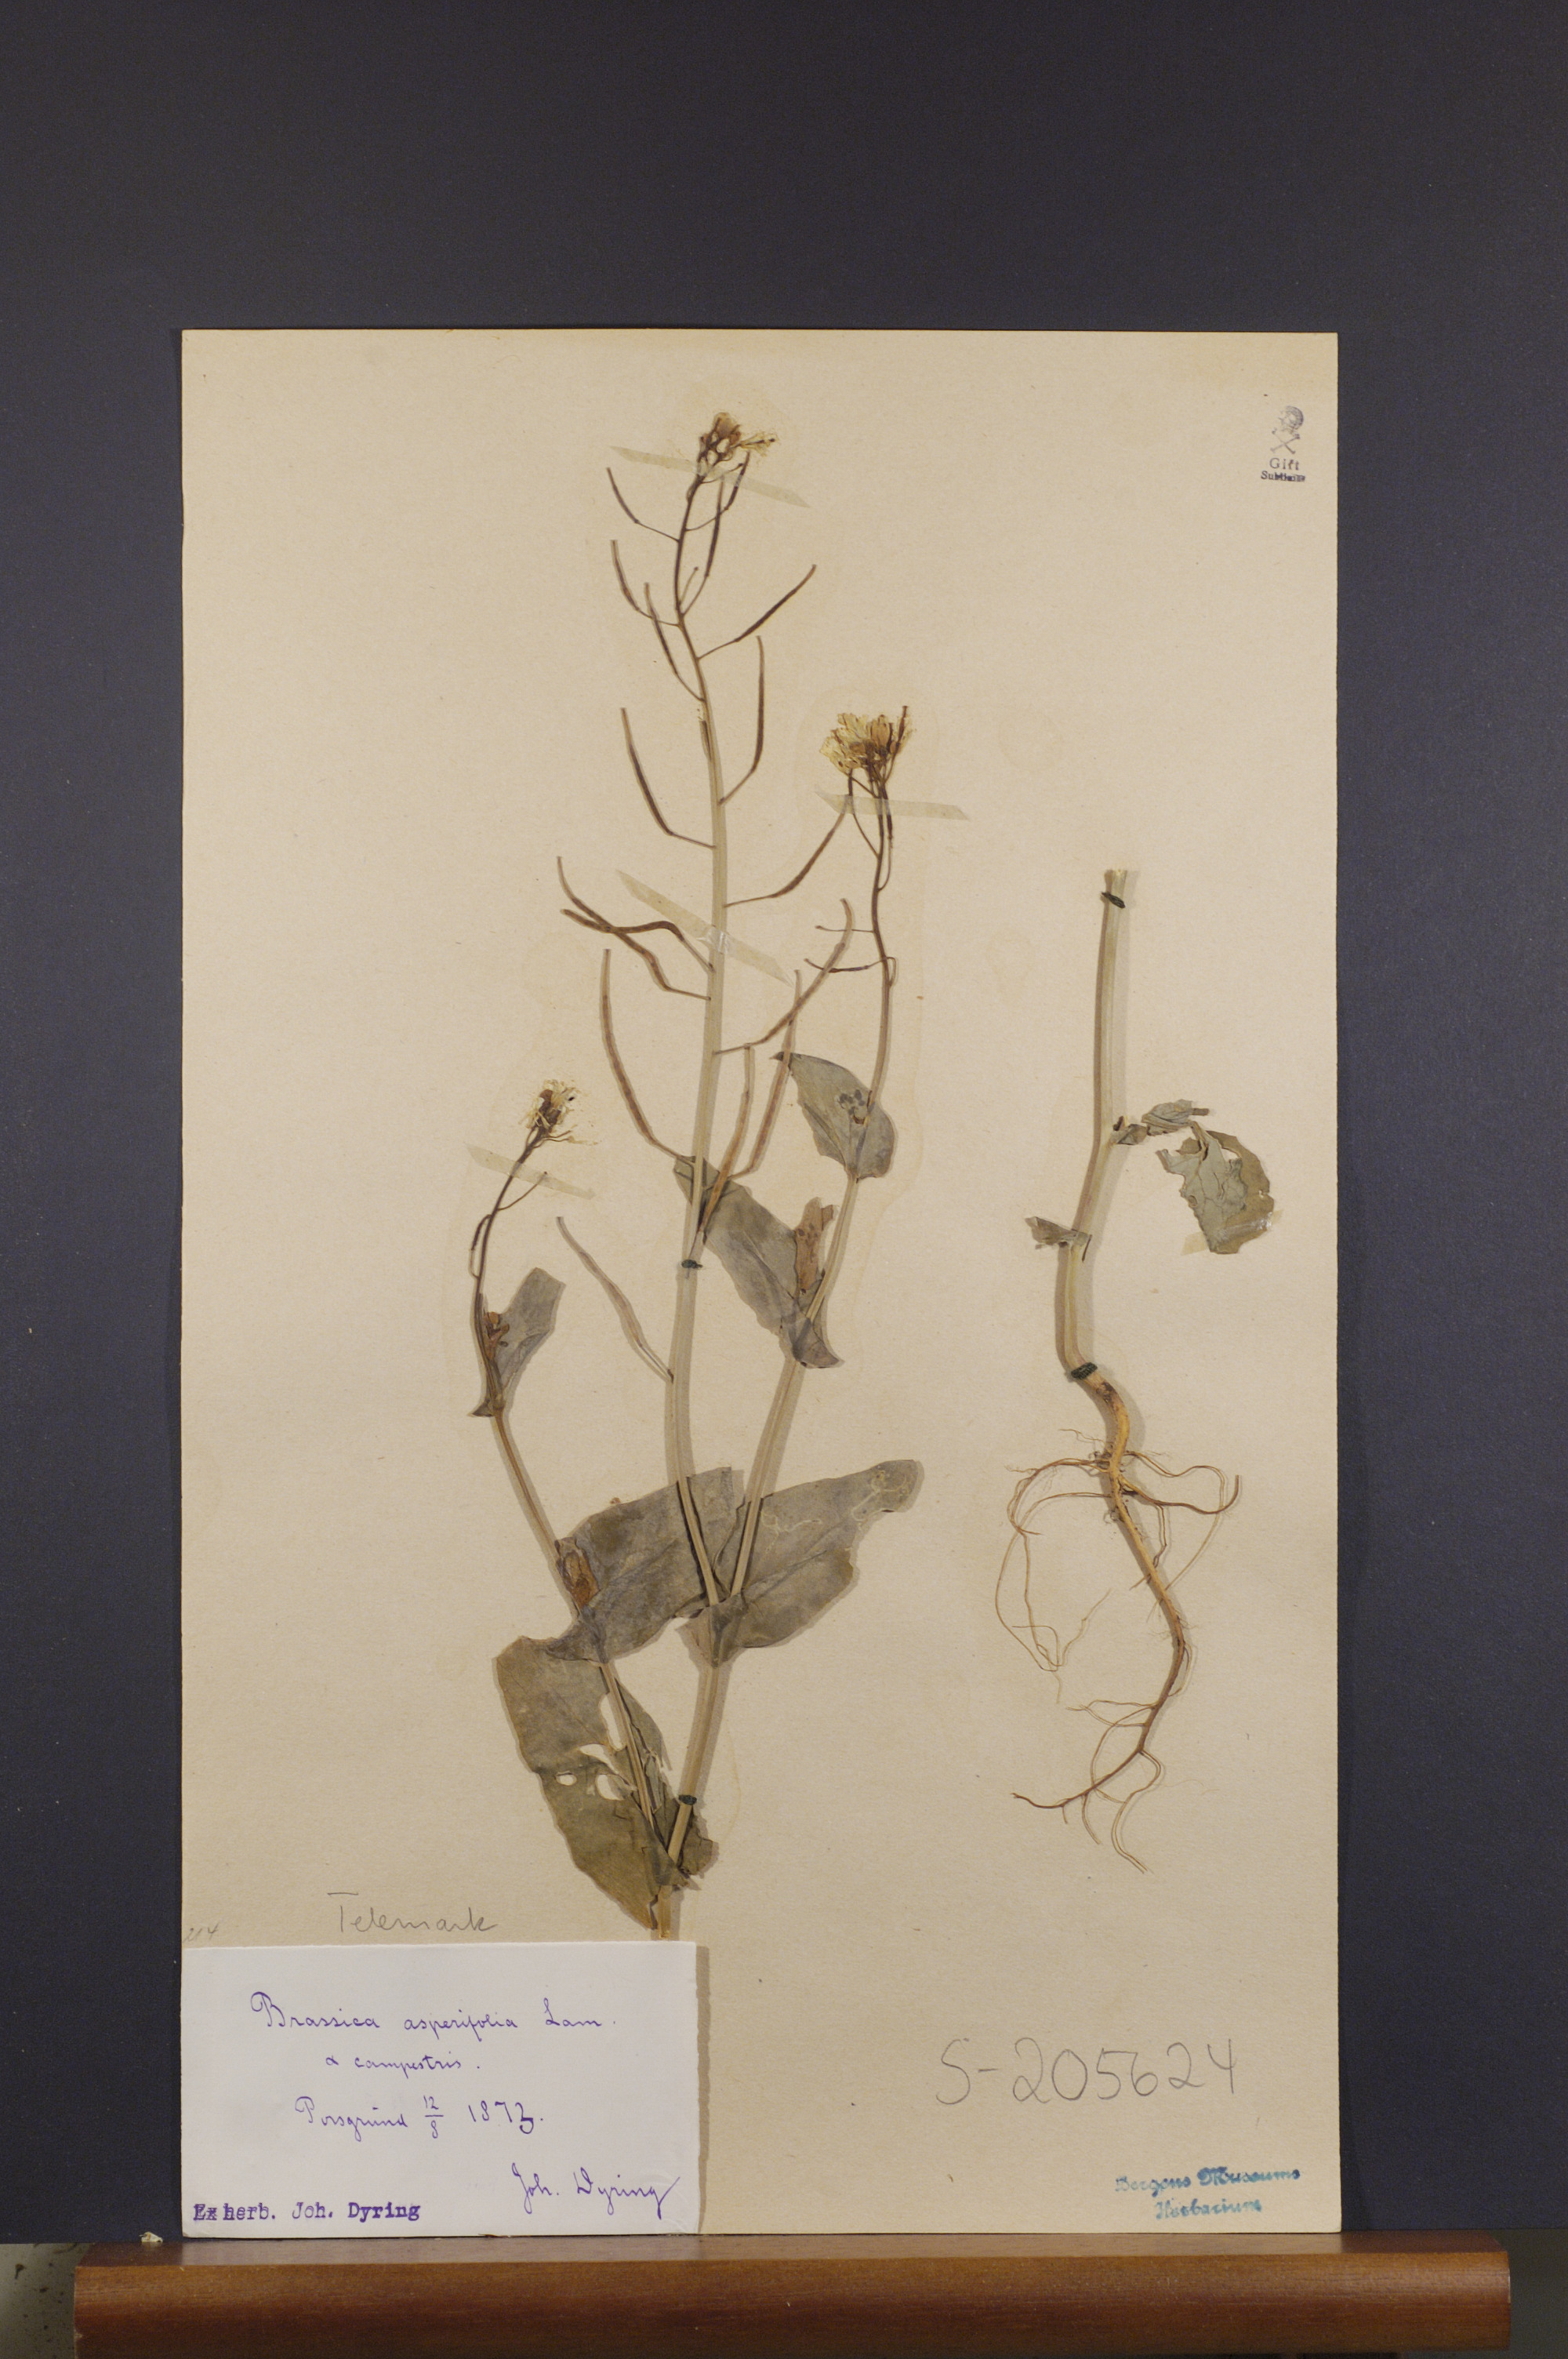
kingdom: Plantae
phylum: Tracheophyta
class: Magnoliopsida
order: Brassicales
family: Brassicaceae
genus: Brassica
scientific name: Brassica rapa
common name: Field mustard
